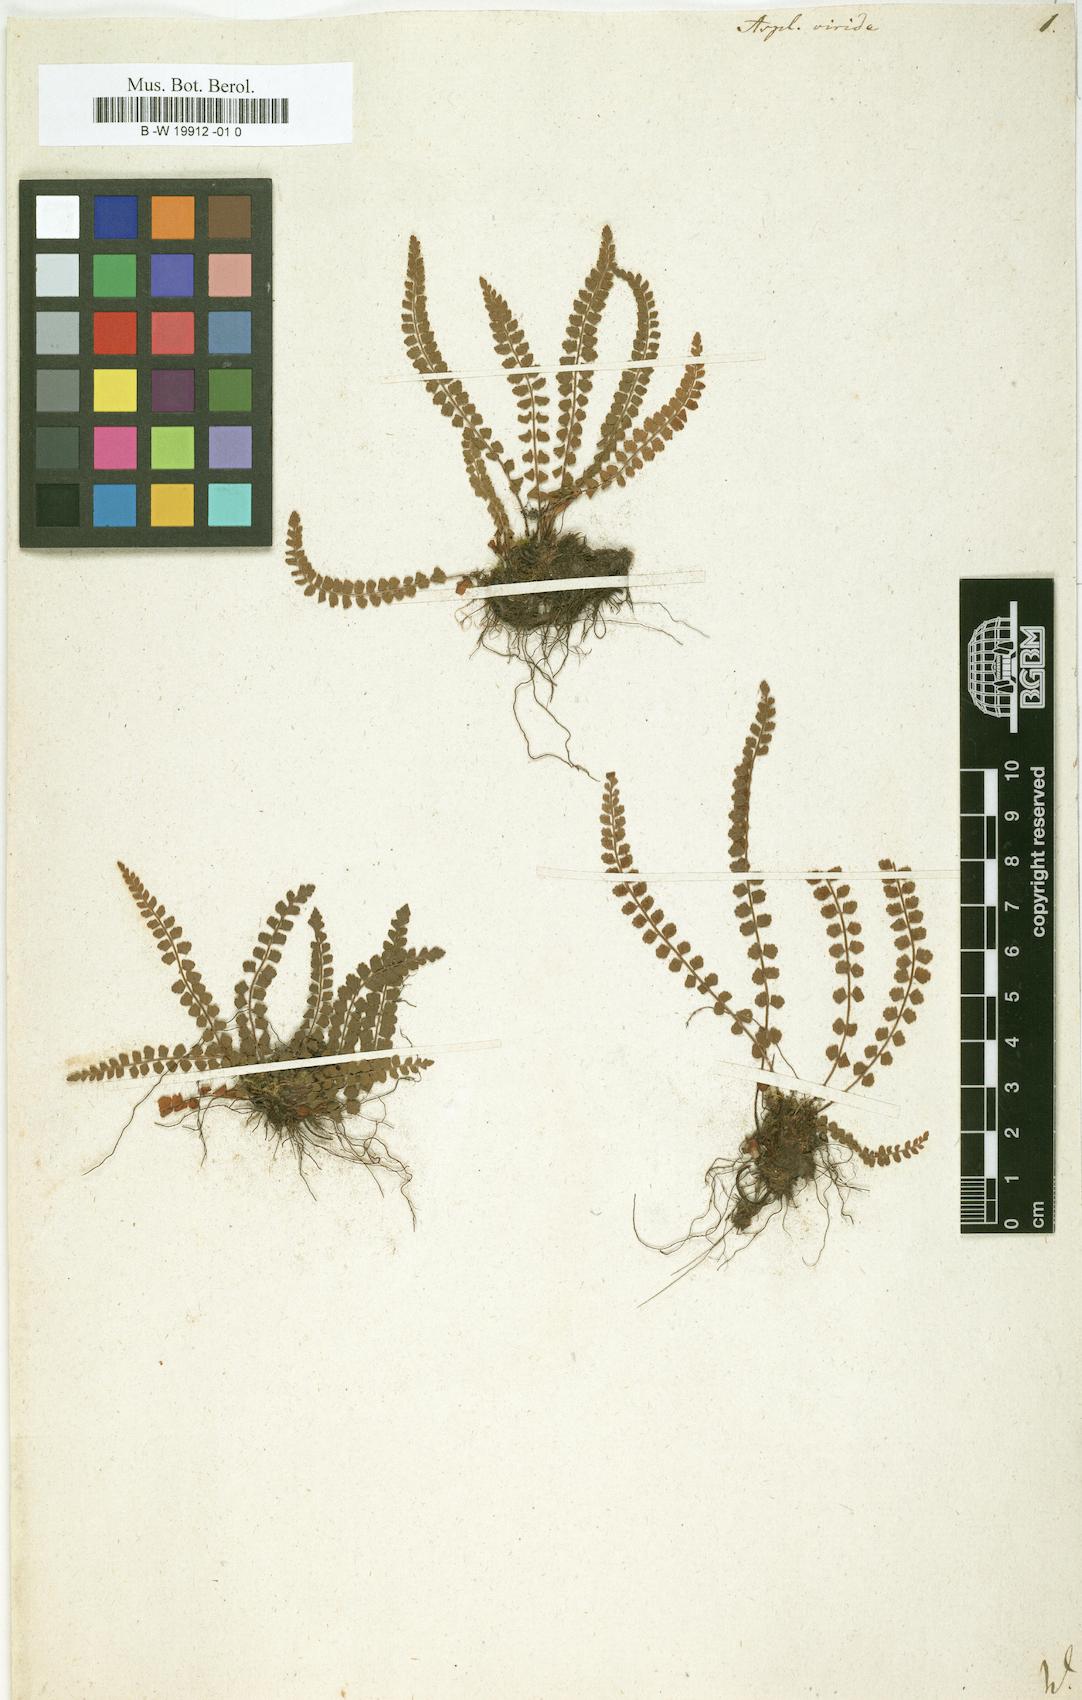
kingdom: Plantae
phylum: Tracheophyta
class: Polypodiopsida
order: Polypodiales
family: Aspleniaceae
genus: Asplenium
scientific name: Asplenium viride
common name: Green spleenwort
